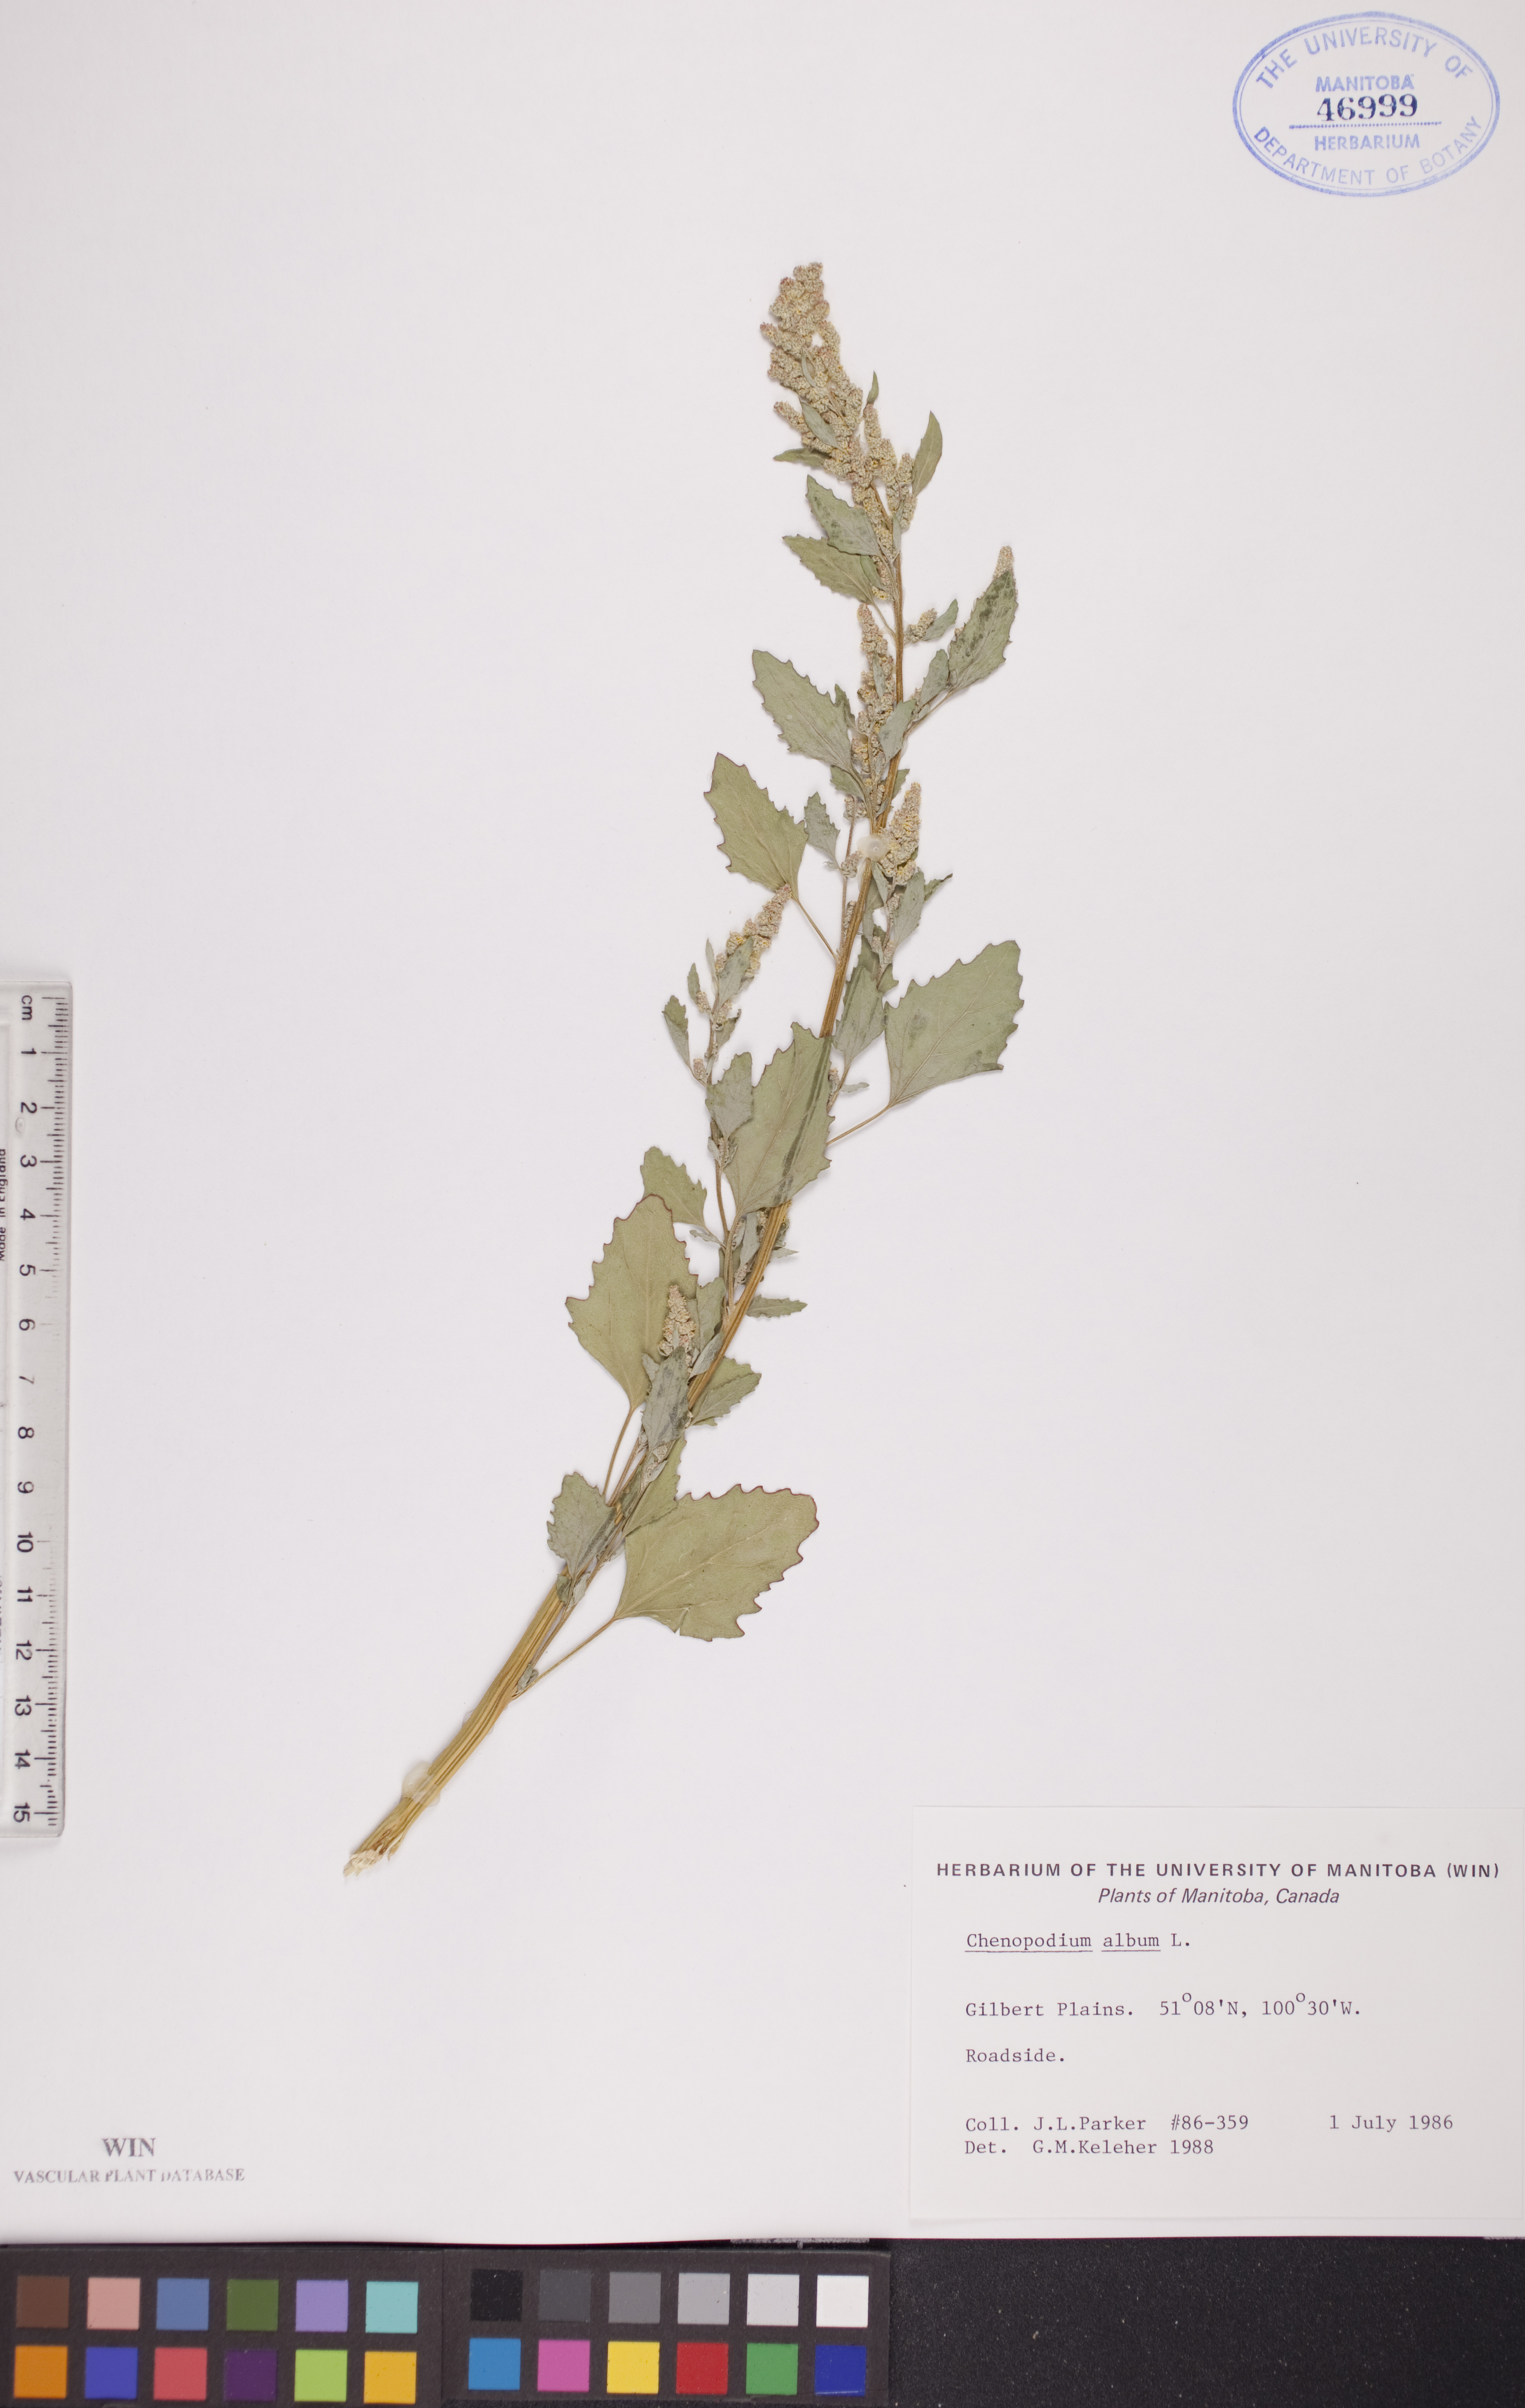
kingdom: Plantae
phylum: Tracheophyta
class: Magnoliopsida
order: Caryophyllales
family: Amaranthaceae
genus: Chenopodium
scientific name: Chenopodium album
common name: Fat-hen
